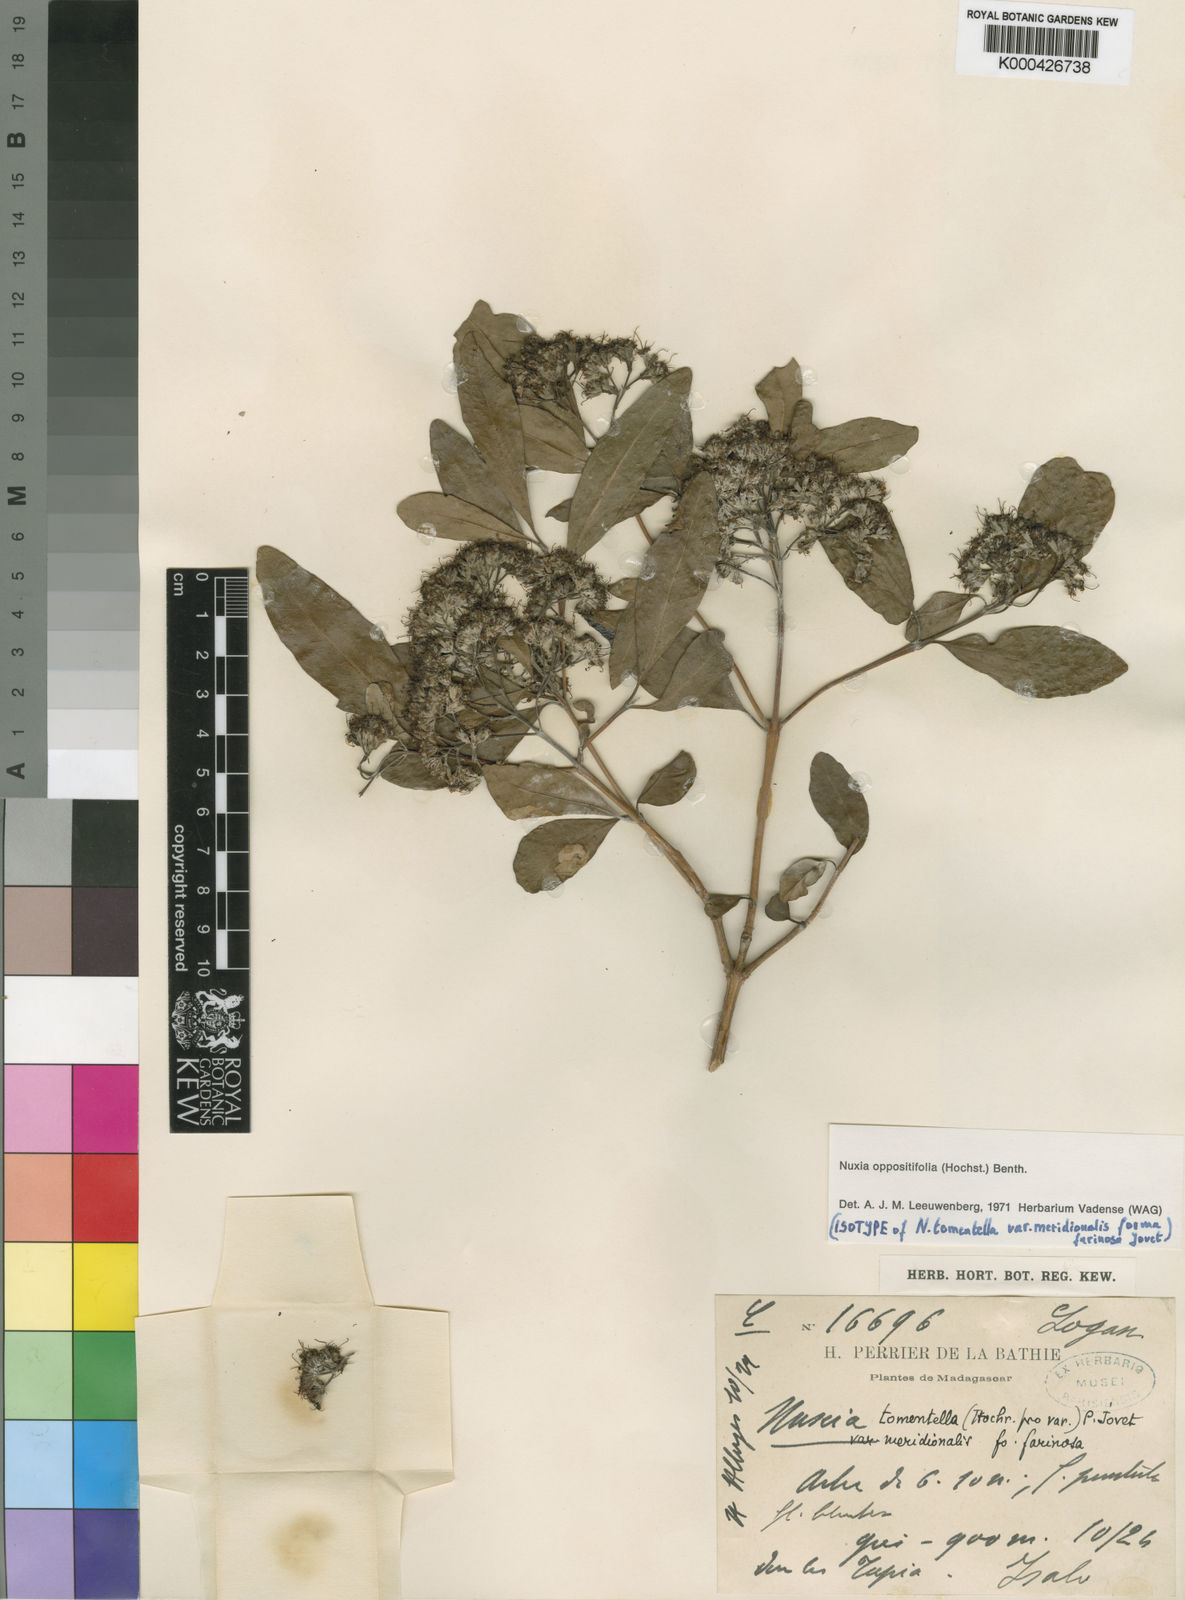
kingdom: Plantae
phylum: Tracheophyta
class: Magnoliopsida
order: Lamiales
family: Stilbaceae
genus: Nuxia
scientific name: Nuxia oppositifolia
